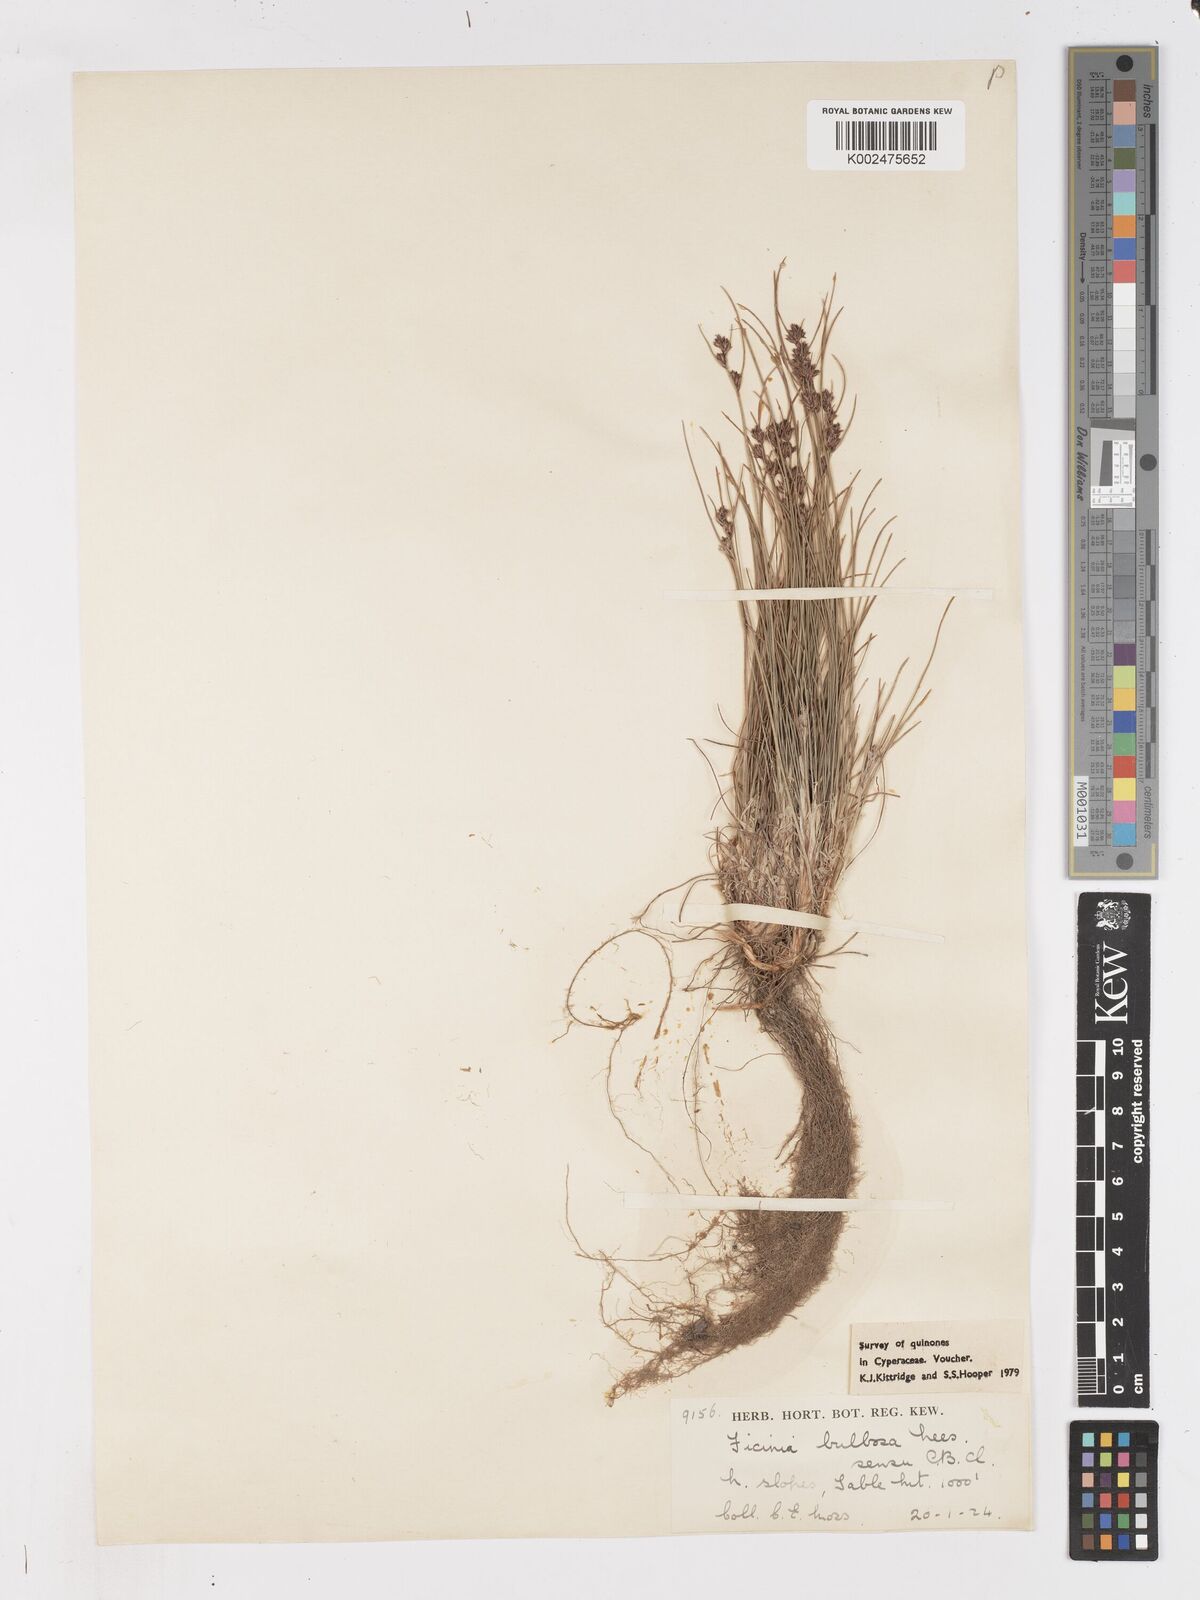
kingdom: Plantae
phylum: Tracheophyta
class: Liliopsida
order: Poales
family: Cyperaceae
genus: Ficinia
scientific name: Ficinia bulbosa
